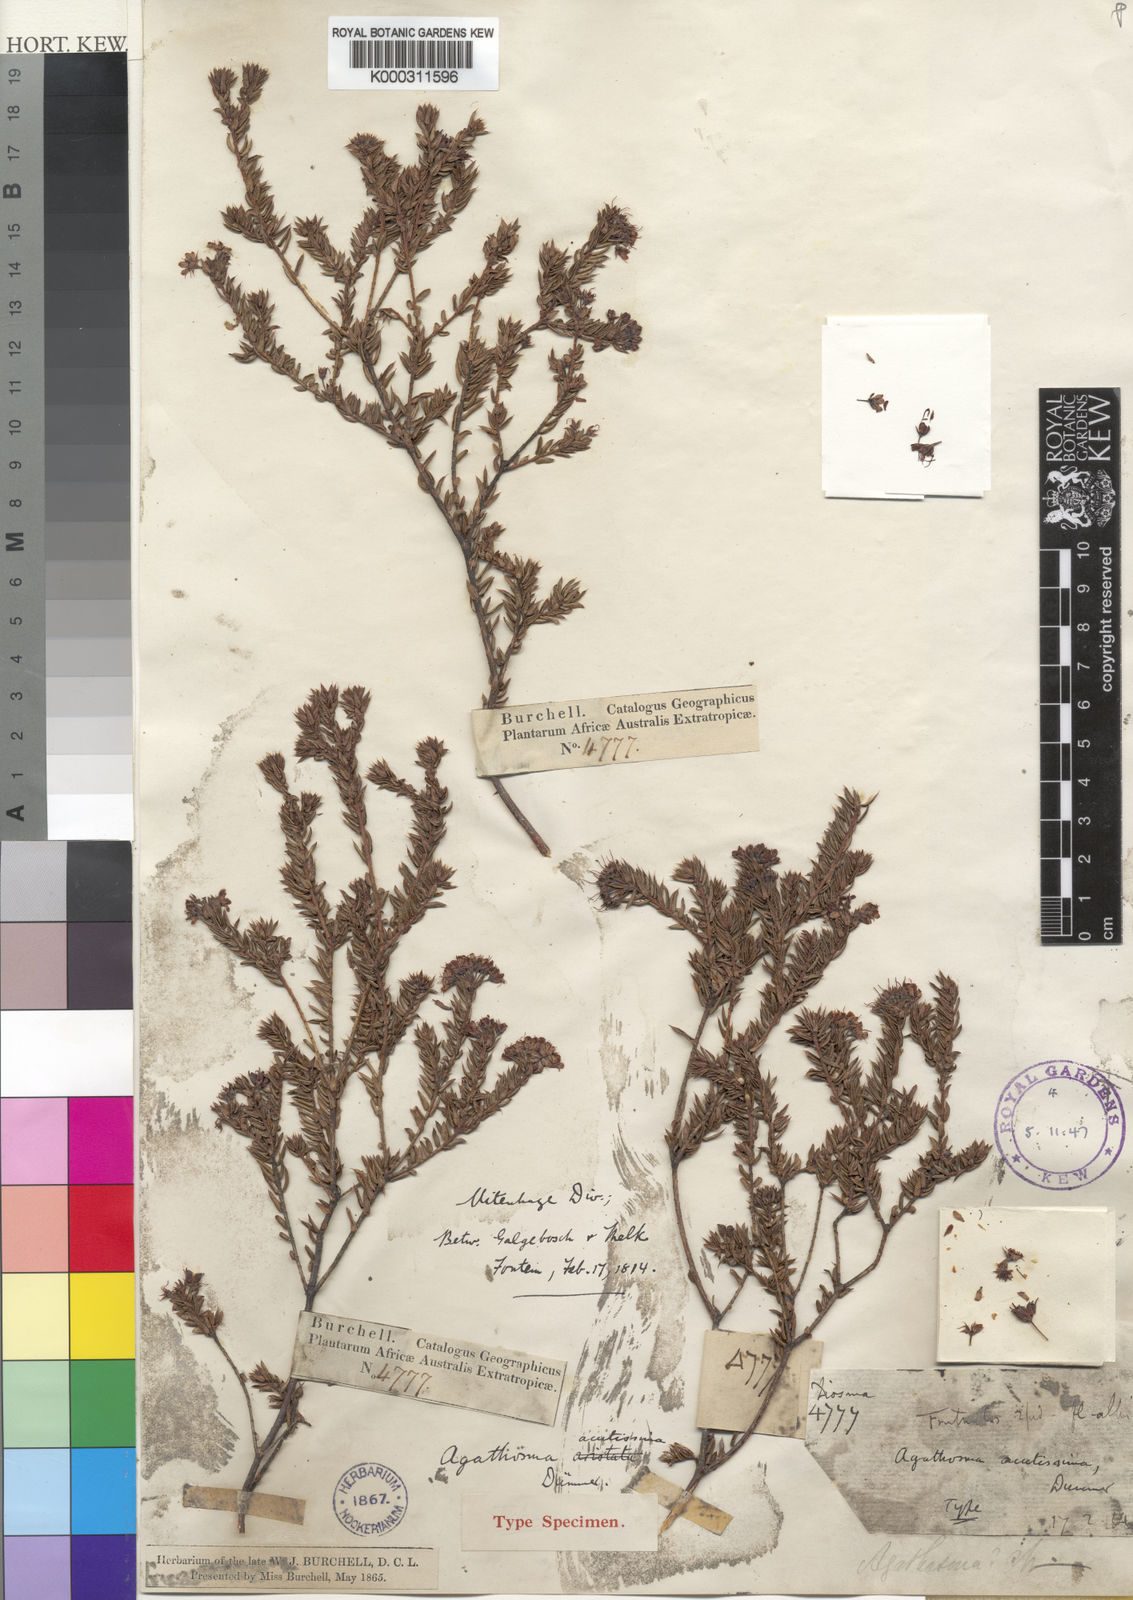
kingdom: Plantae
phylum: Tracheophyta
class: Magnoliopsida
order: Sapindales
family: Rutaceae
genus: Agathosma
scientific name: Agathosma acutissima
